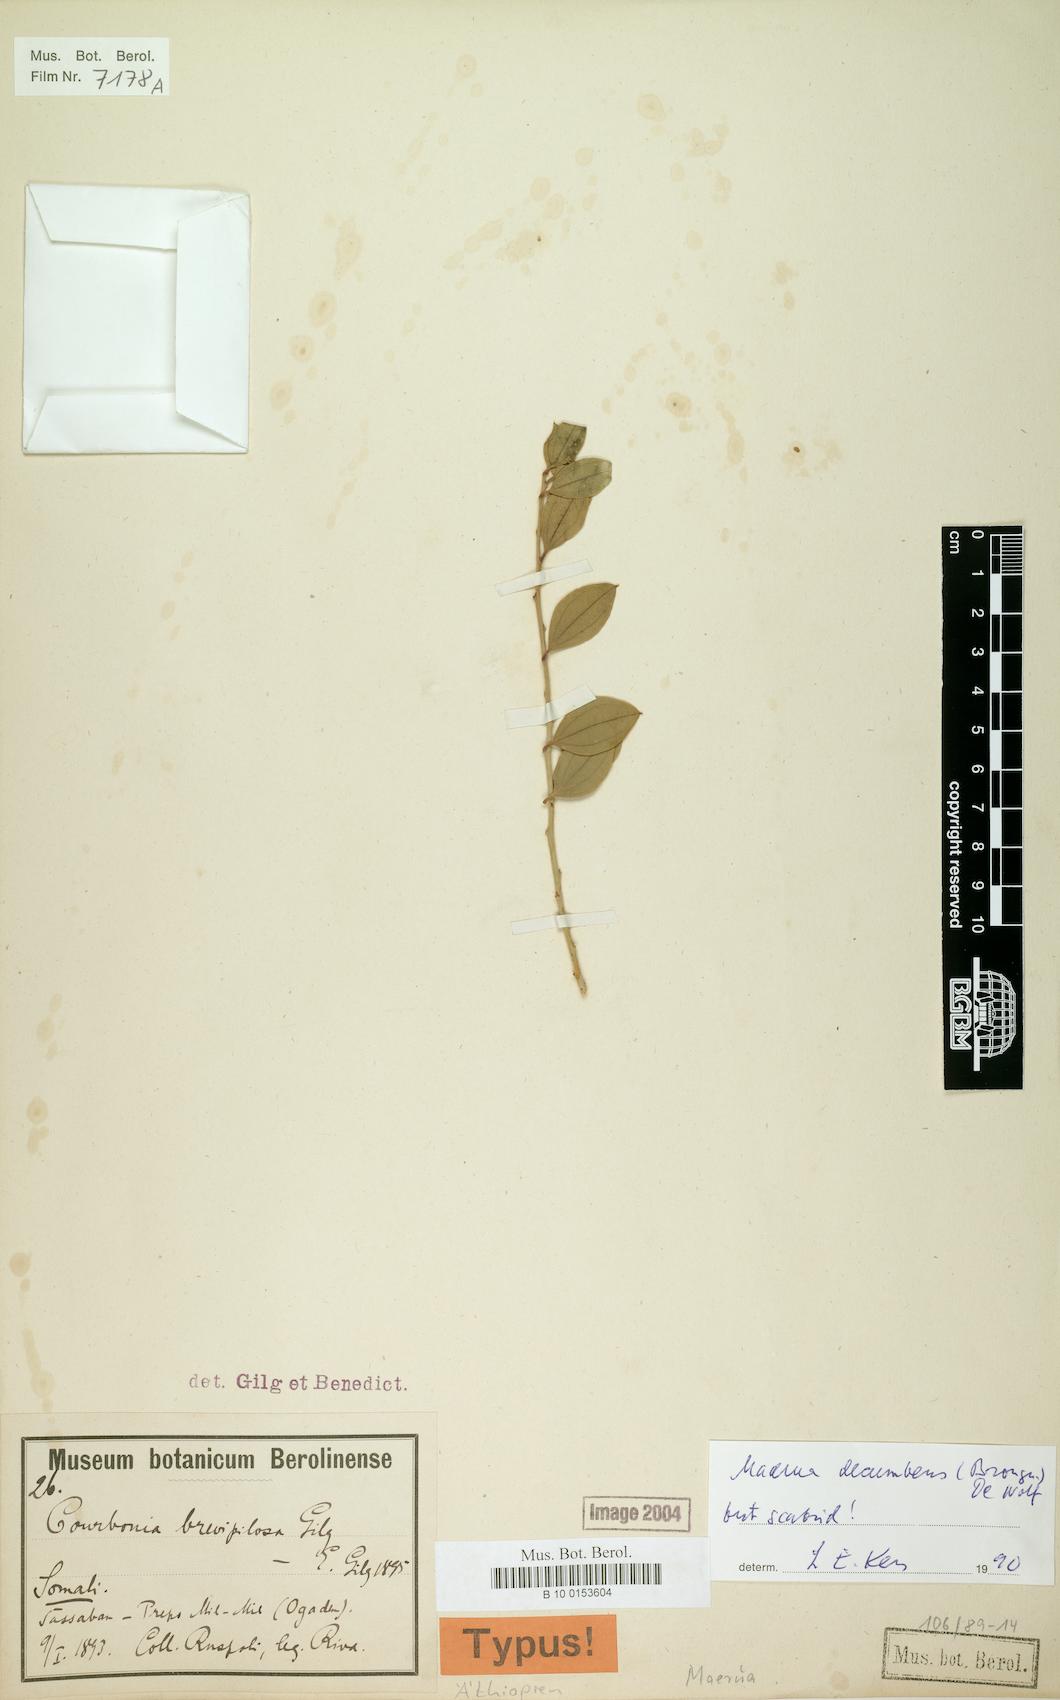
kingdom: Plantae
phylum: Tracheophyta
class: Magnoliopsida
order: Brassicales
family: Capparaceae
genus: Maerua
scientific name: Maerua decumbens
